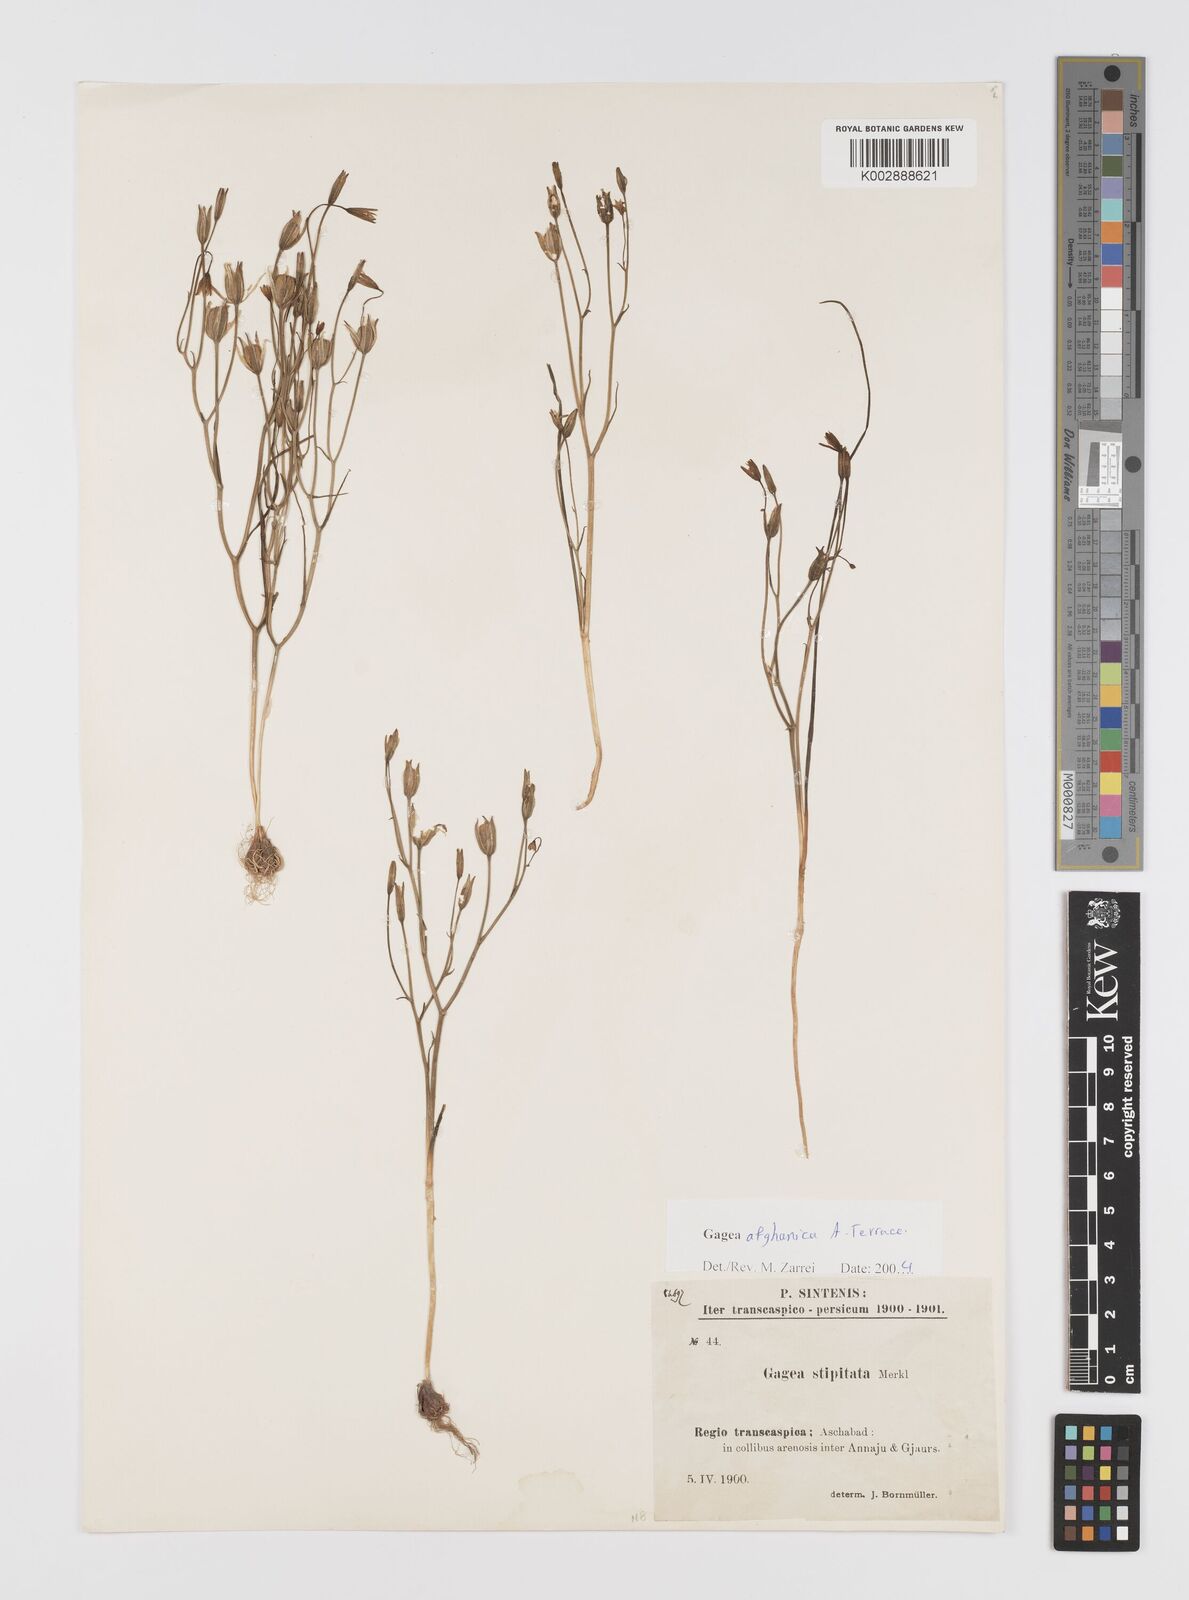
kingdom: Plantae
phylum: Tracheophyta
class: Liliopsida
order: Liliales
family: Liliaceae
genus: Gagea
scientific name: Gagea afghanica
